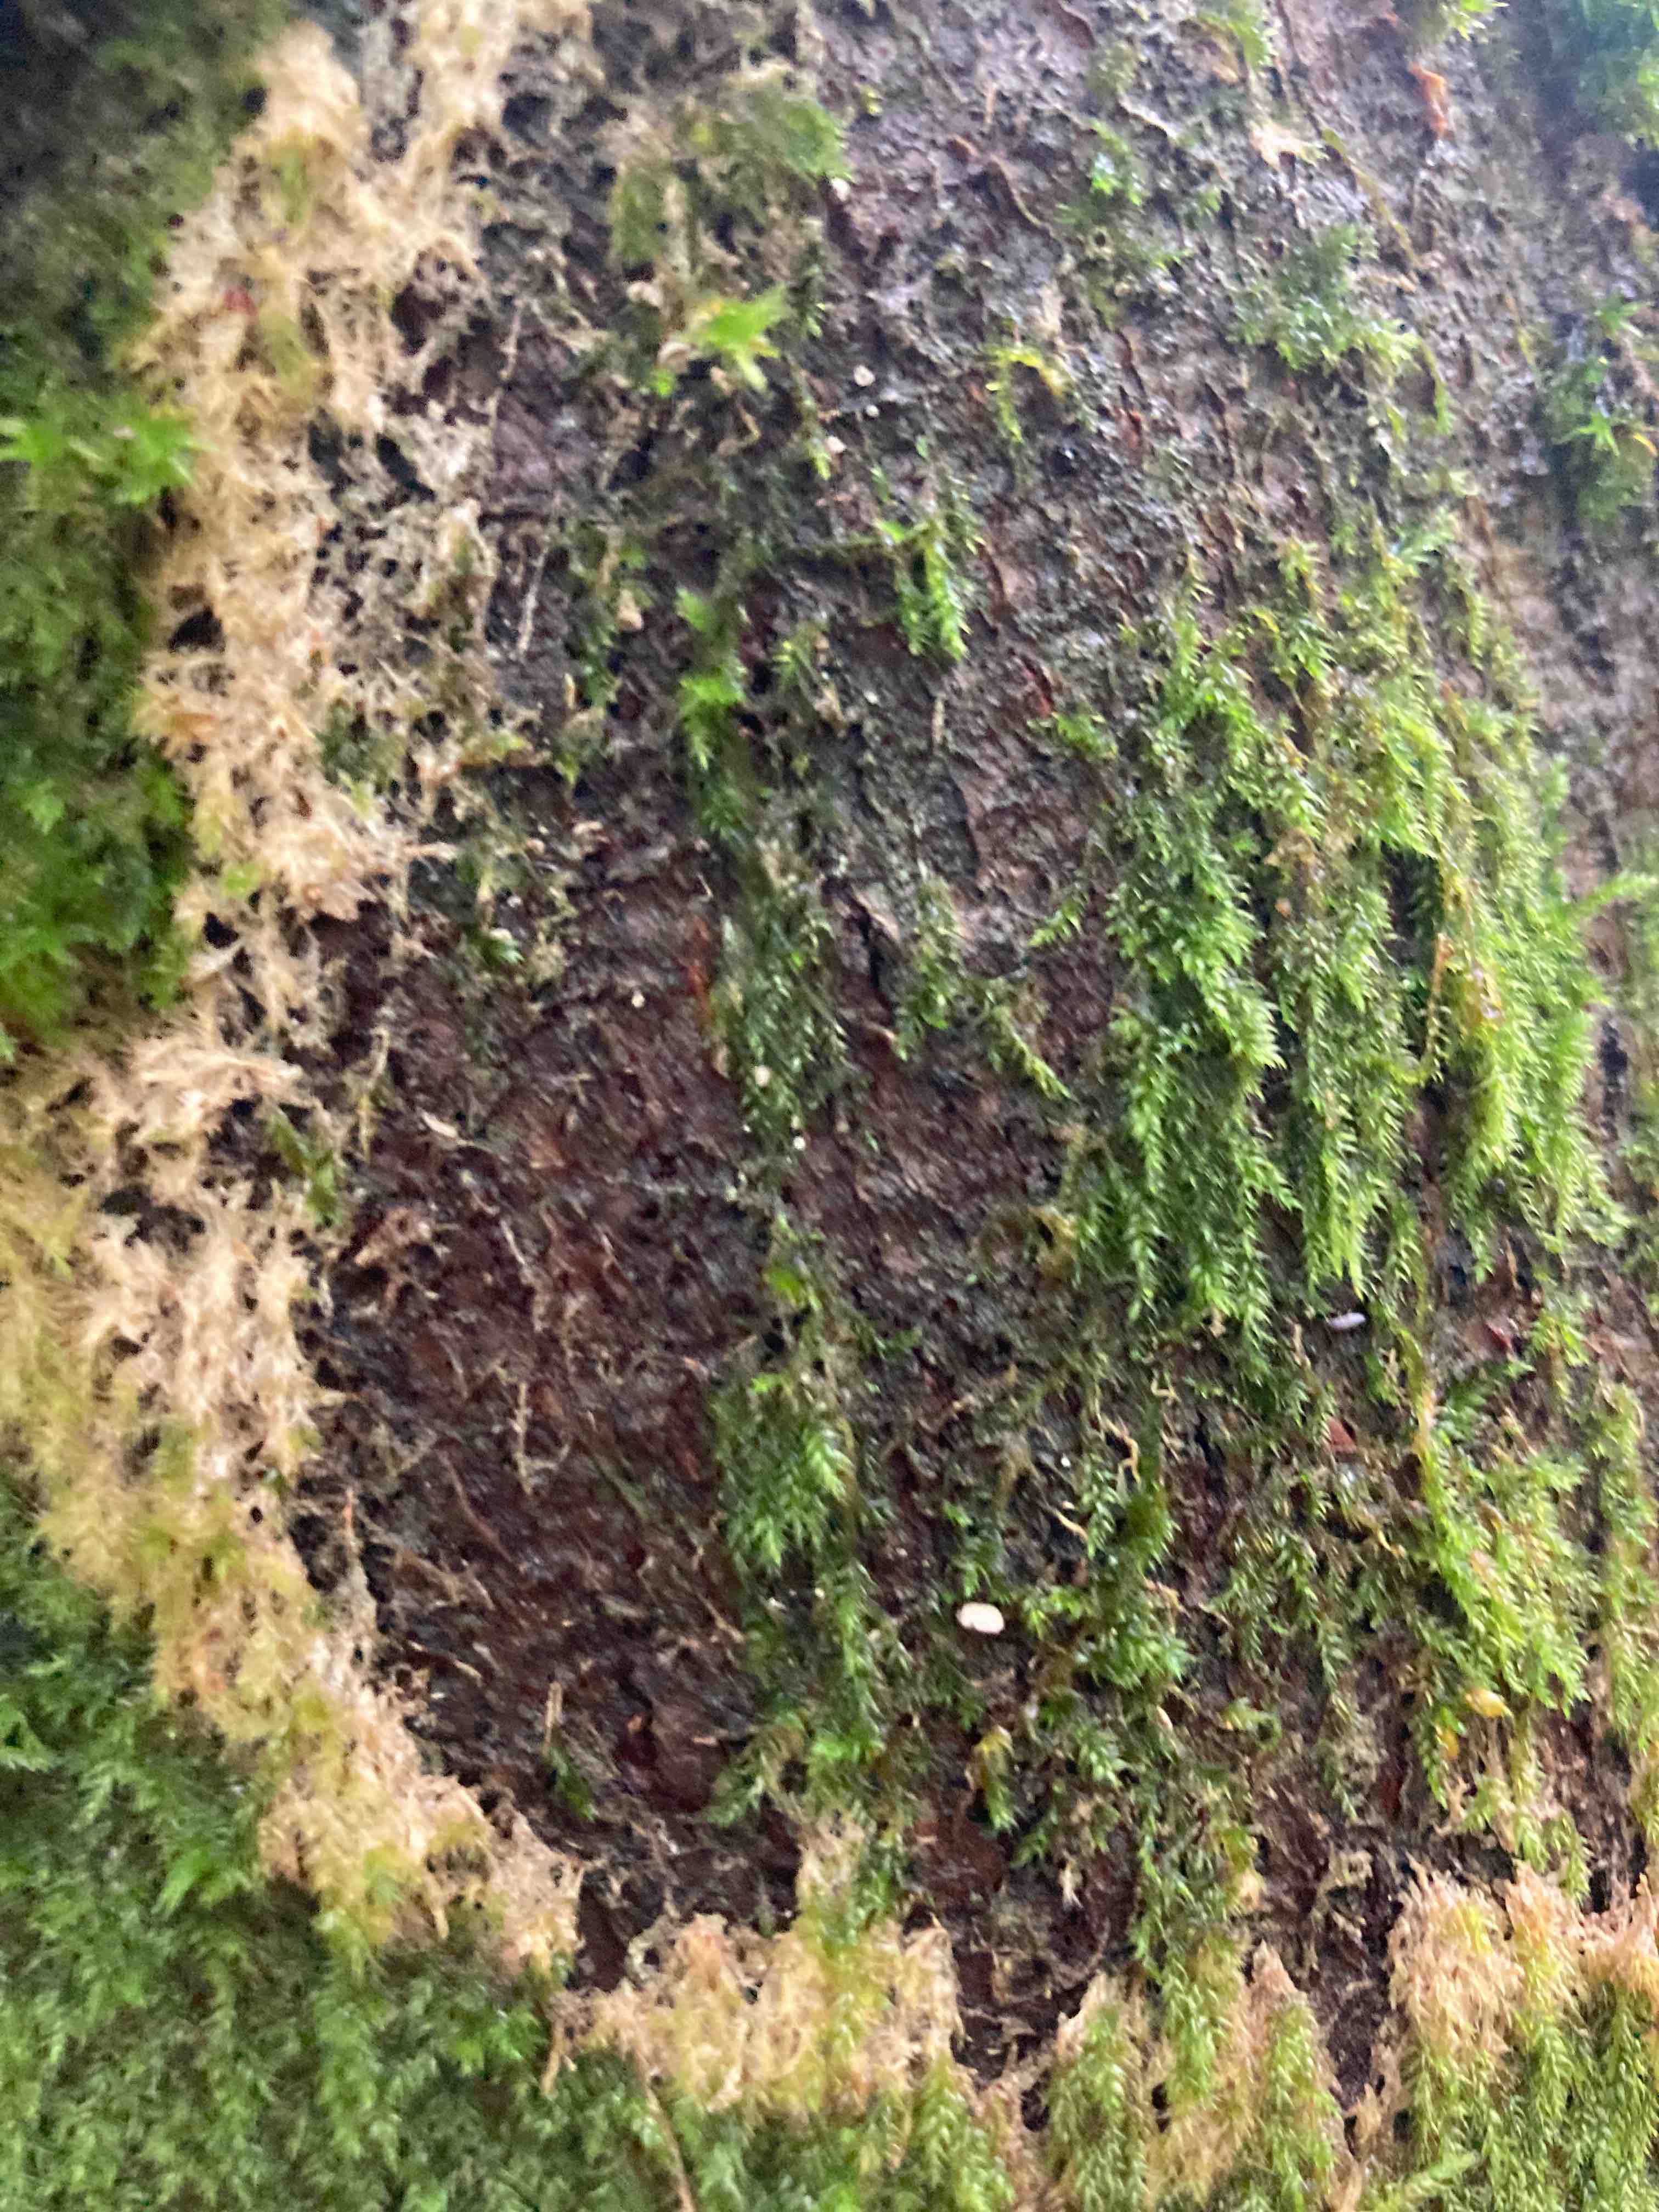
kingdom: Fungi
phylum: Basidiomycota
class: Agaricomycetes
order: Agaricales
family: Chromocyphellaceae
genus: Chromocyphella
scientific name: Chromocyphella muscicola
